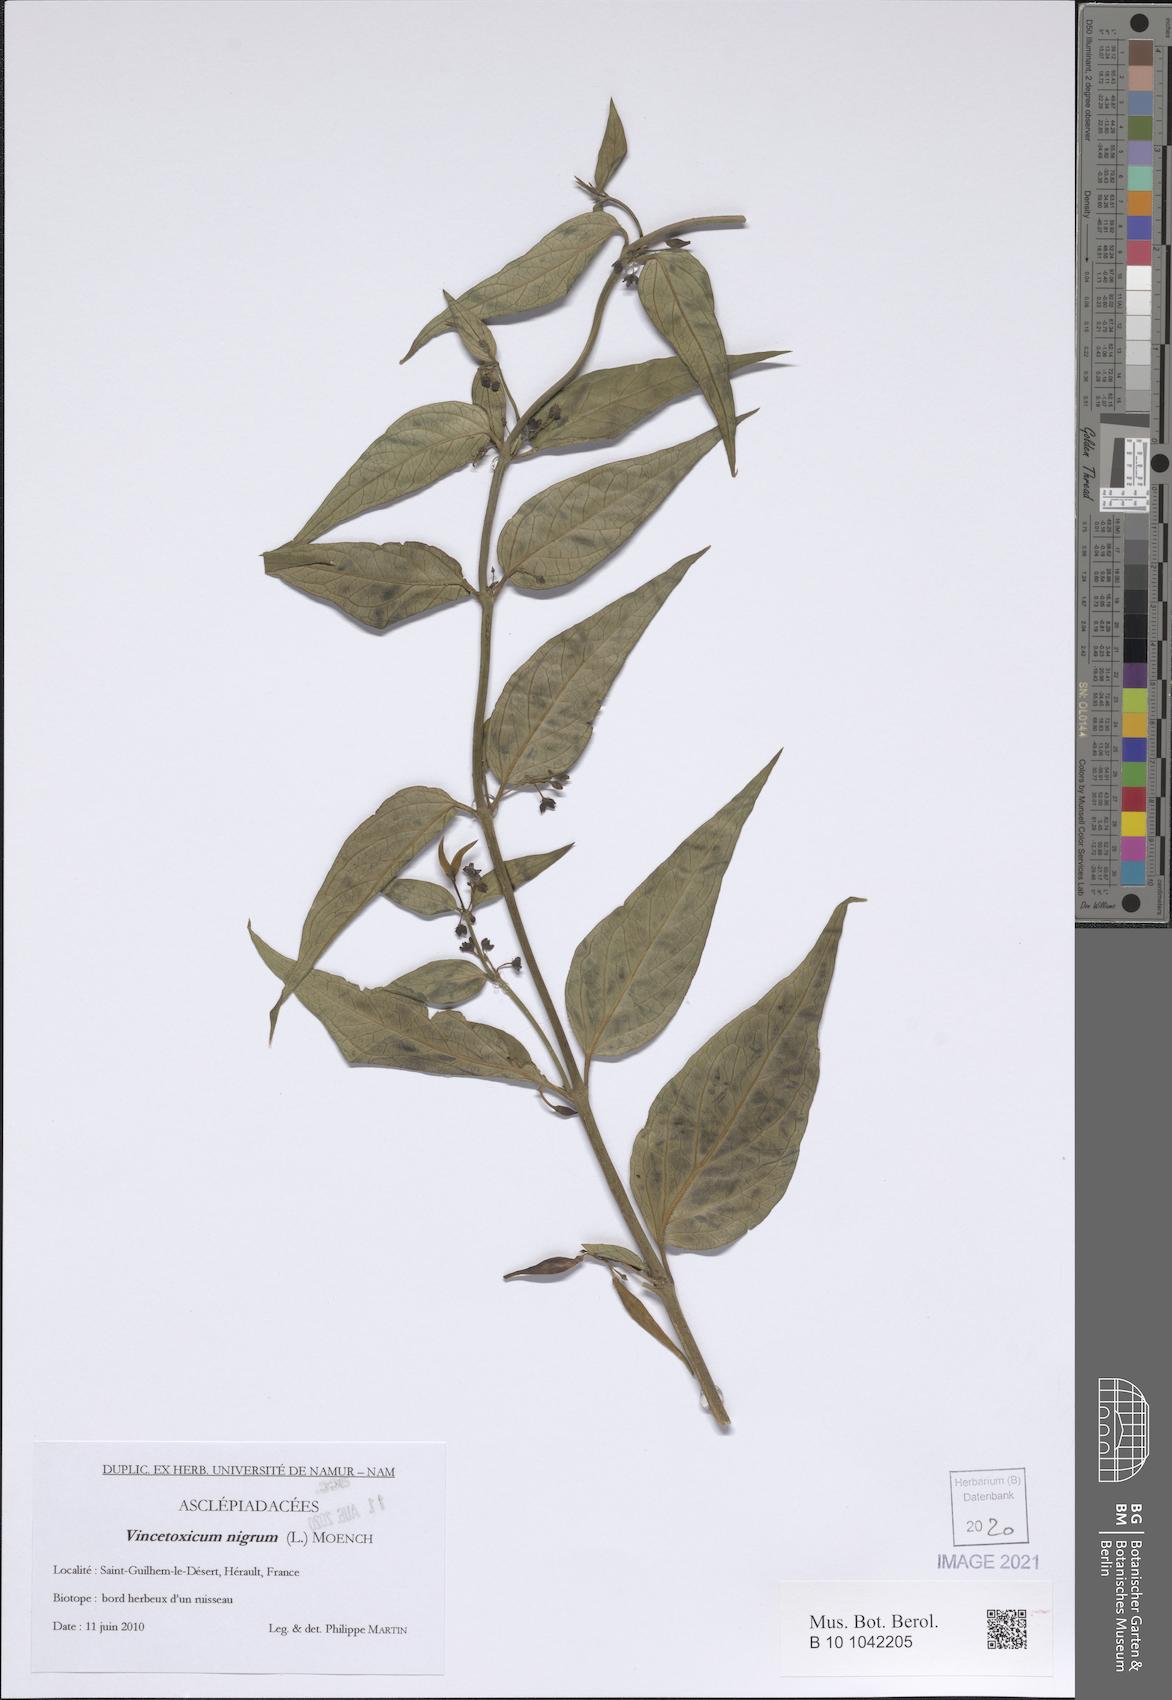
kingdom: Plantae
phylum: Tracheophyta
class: Magnoliopsida
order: Gentianales
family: Apocynaceae
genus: Vincetoxicum
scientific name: Vincetoxicum nigrum
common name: Black swallow-wort
